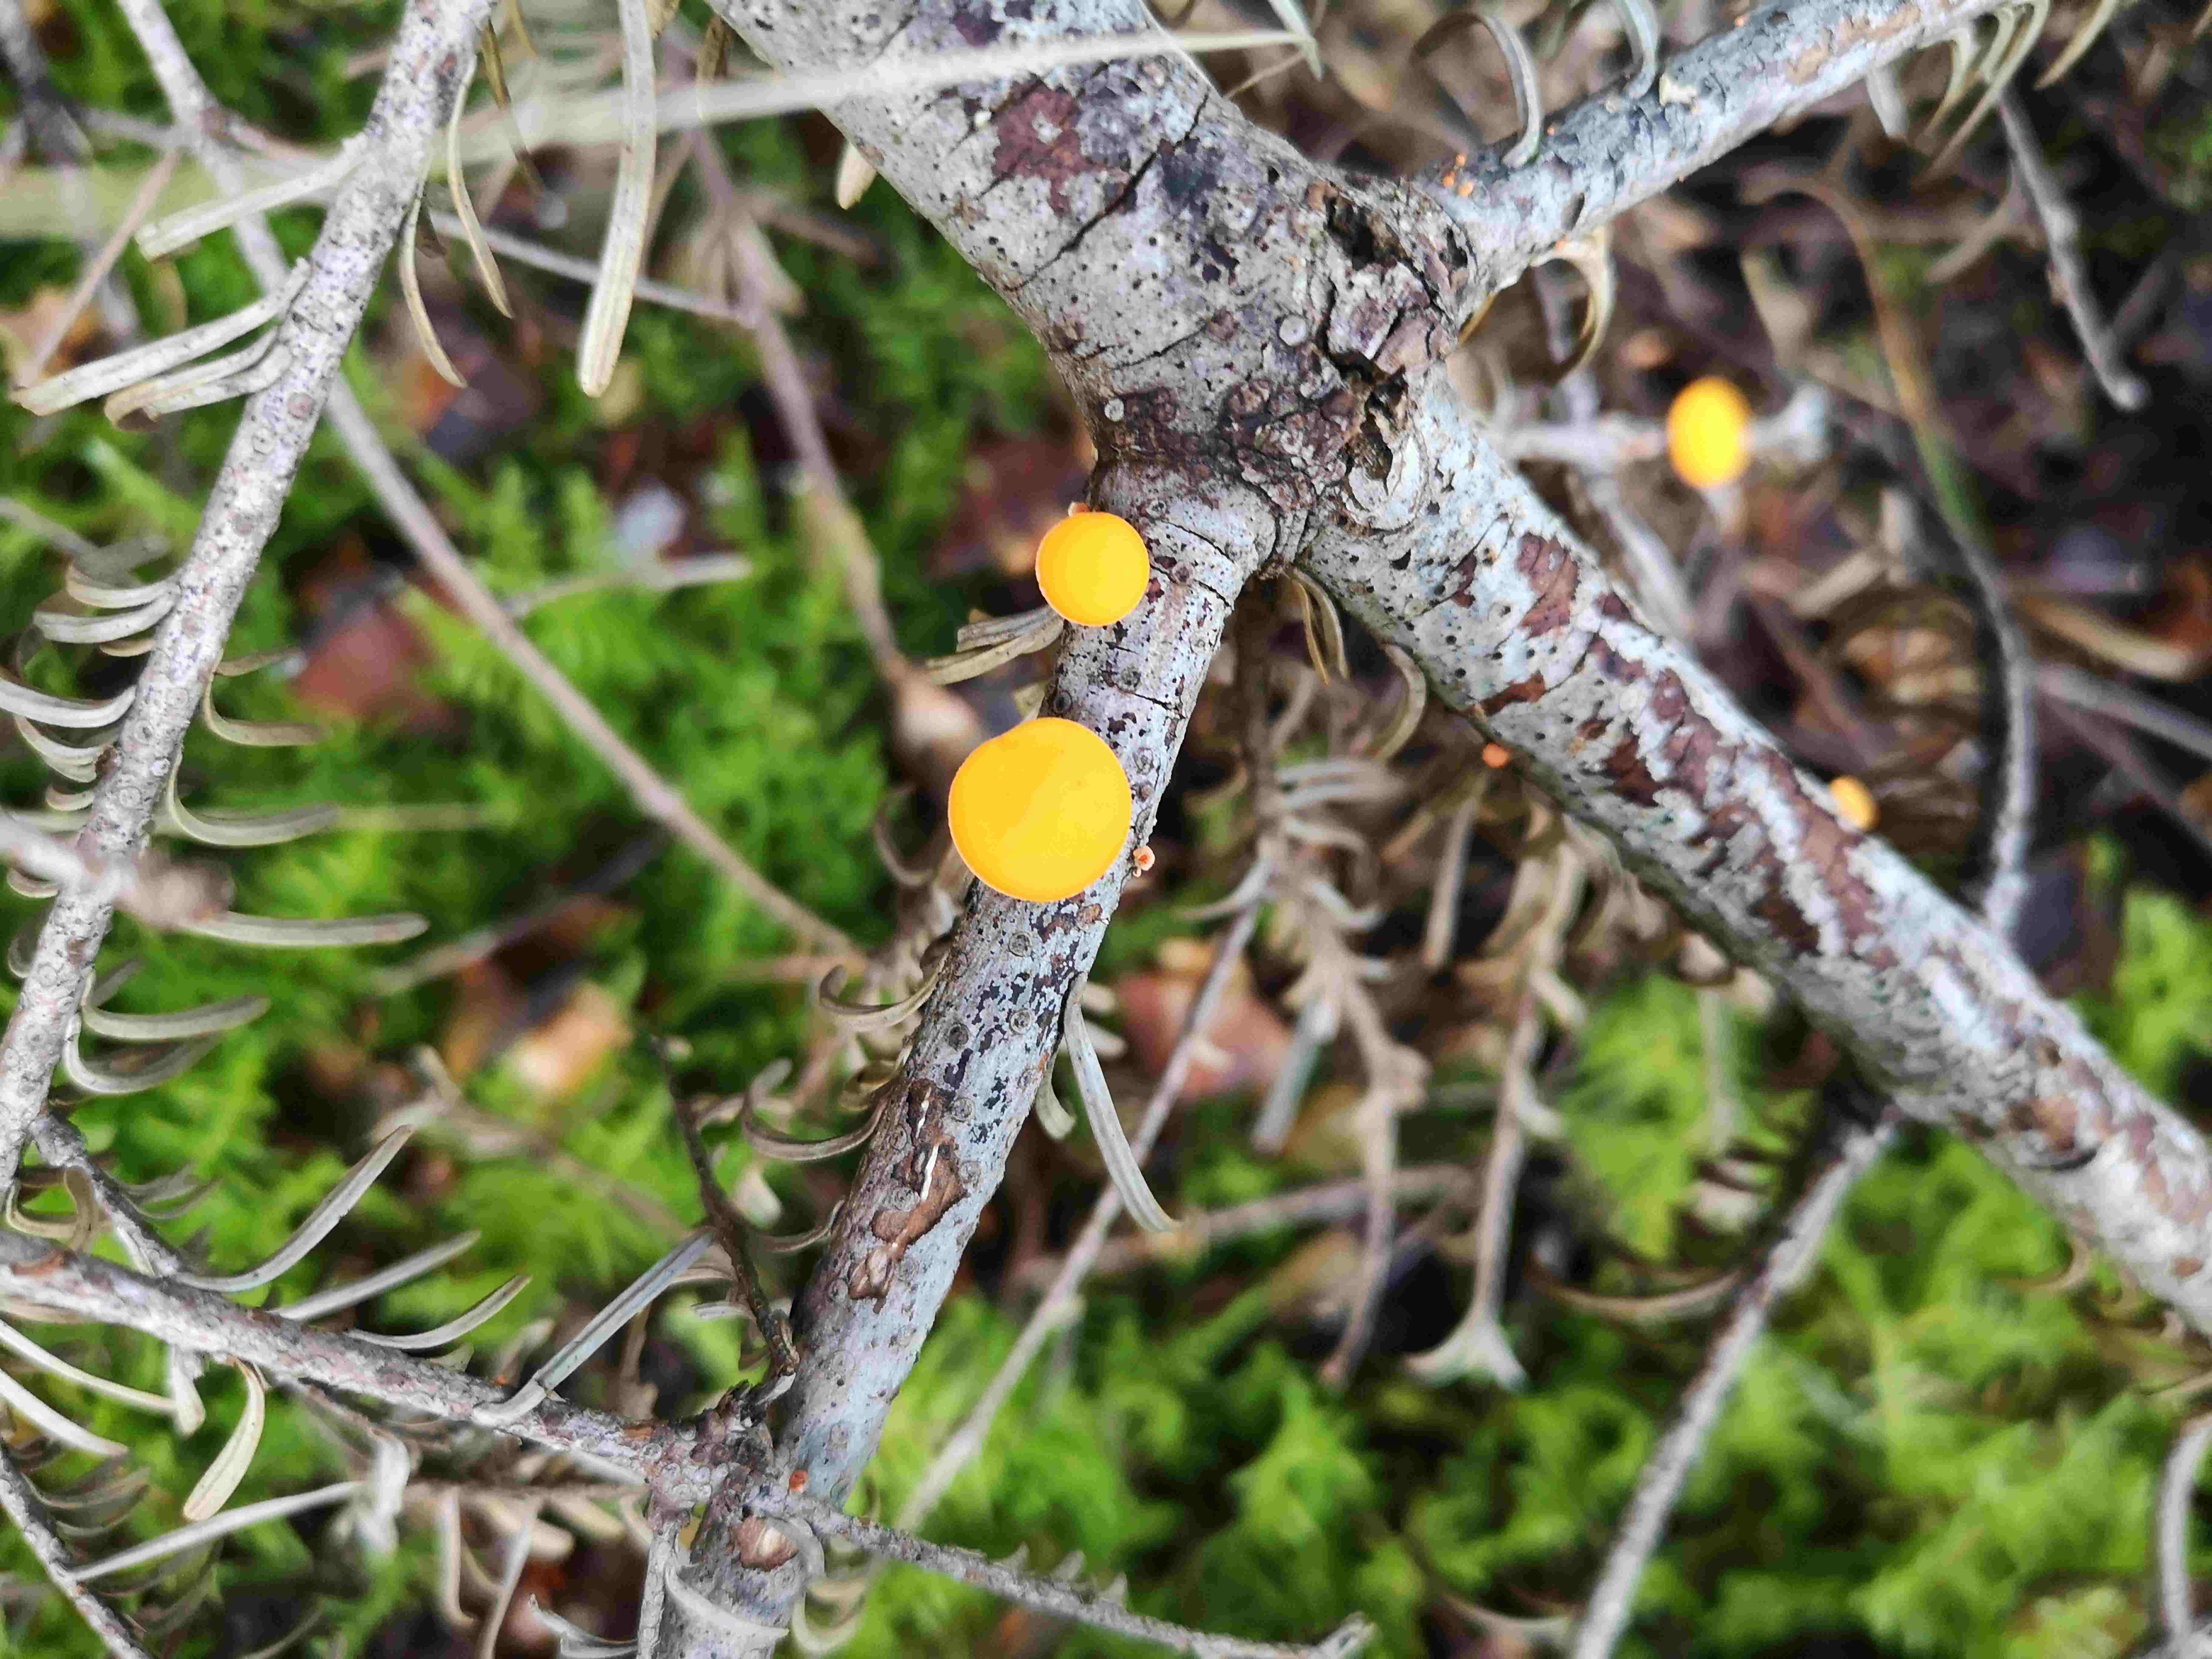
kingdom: Fungi
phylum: Ascomycota
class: Pezizomycetes
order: Pezizales
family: Sarcoscyphaceae
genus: Pithya
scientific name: Pithya vulgaris
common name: stor dukatbæger
